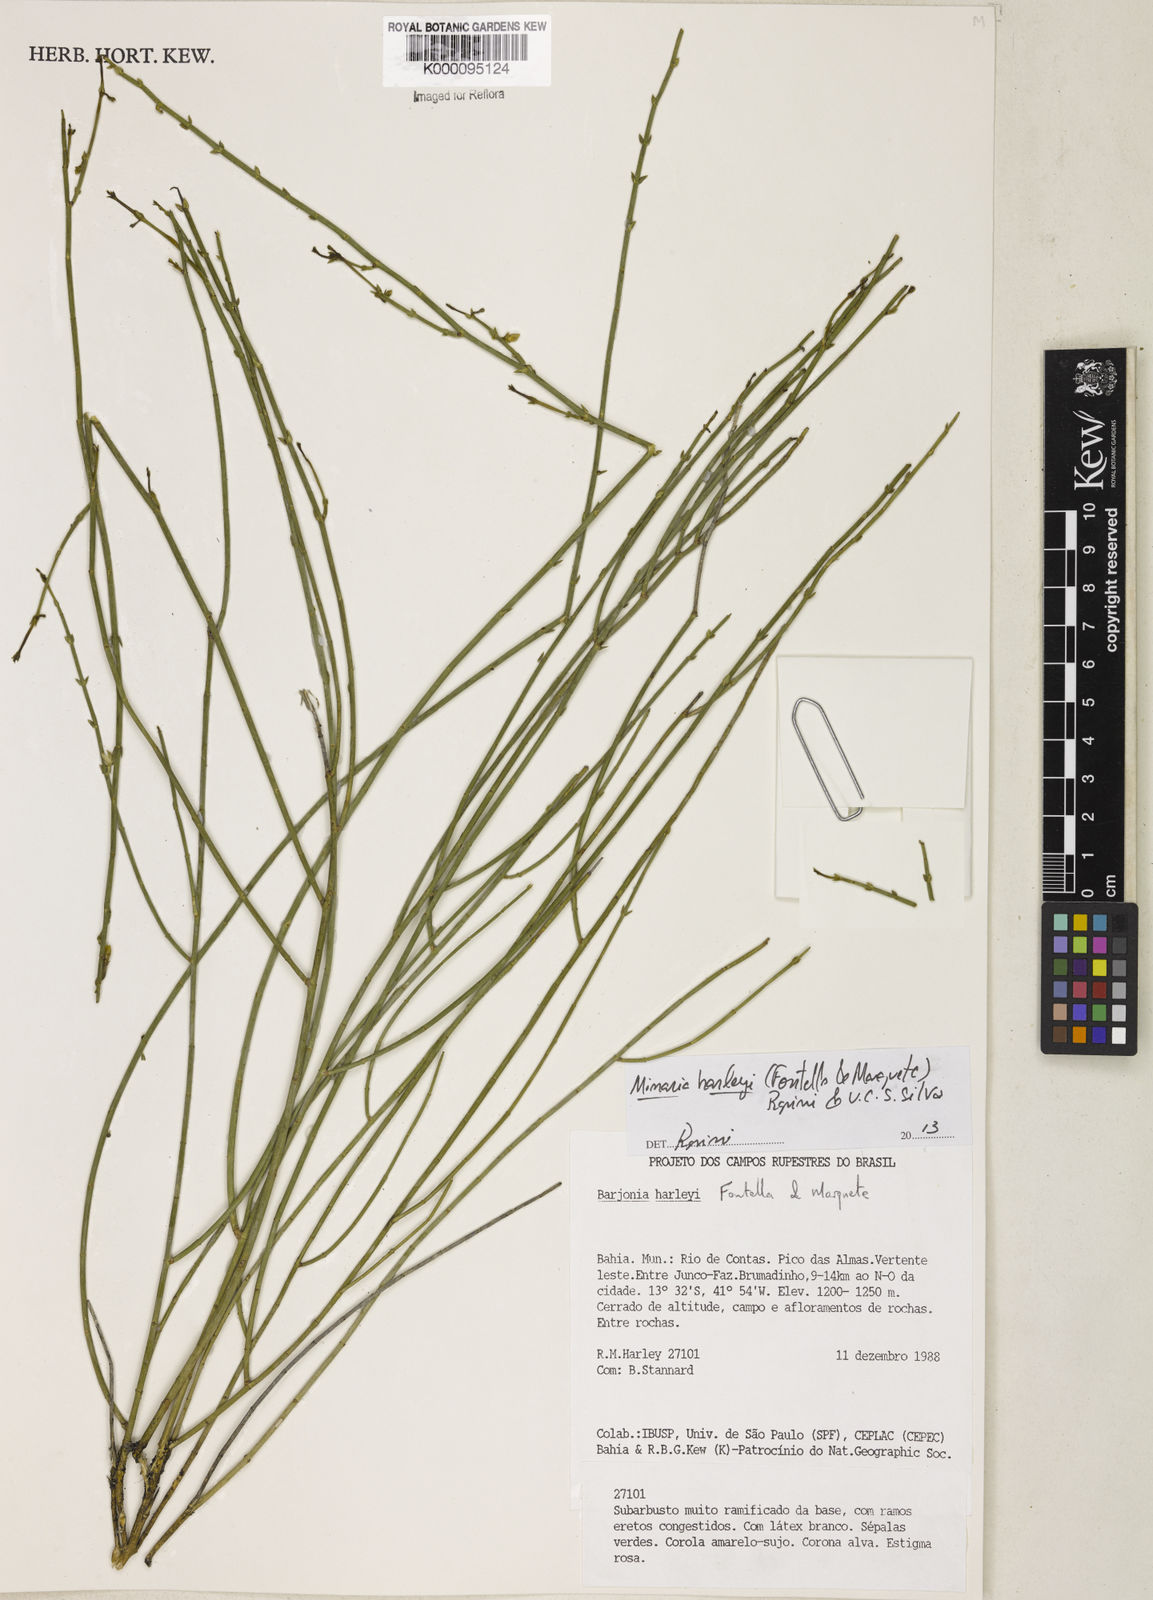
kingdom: Plantae
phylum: Tracheophyta
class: Magnoliopsida
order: Gentianales
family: Apocynaceae
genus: Minaria
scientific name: Minaria cordata
